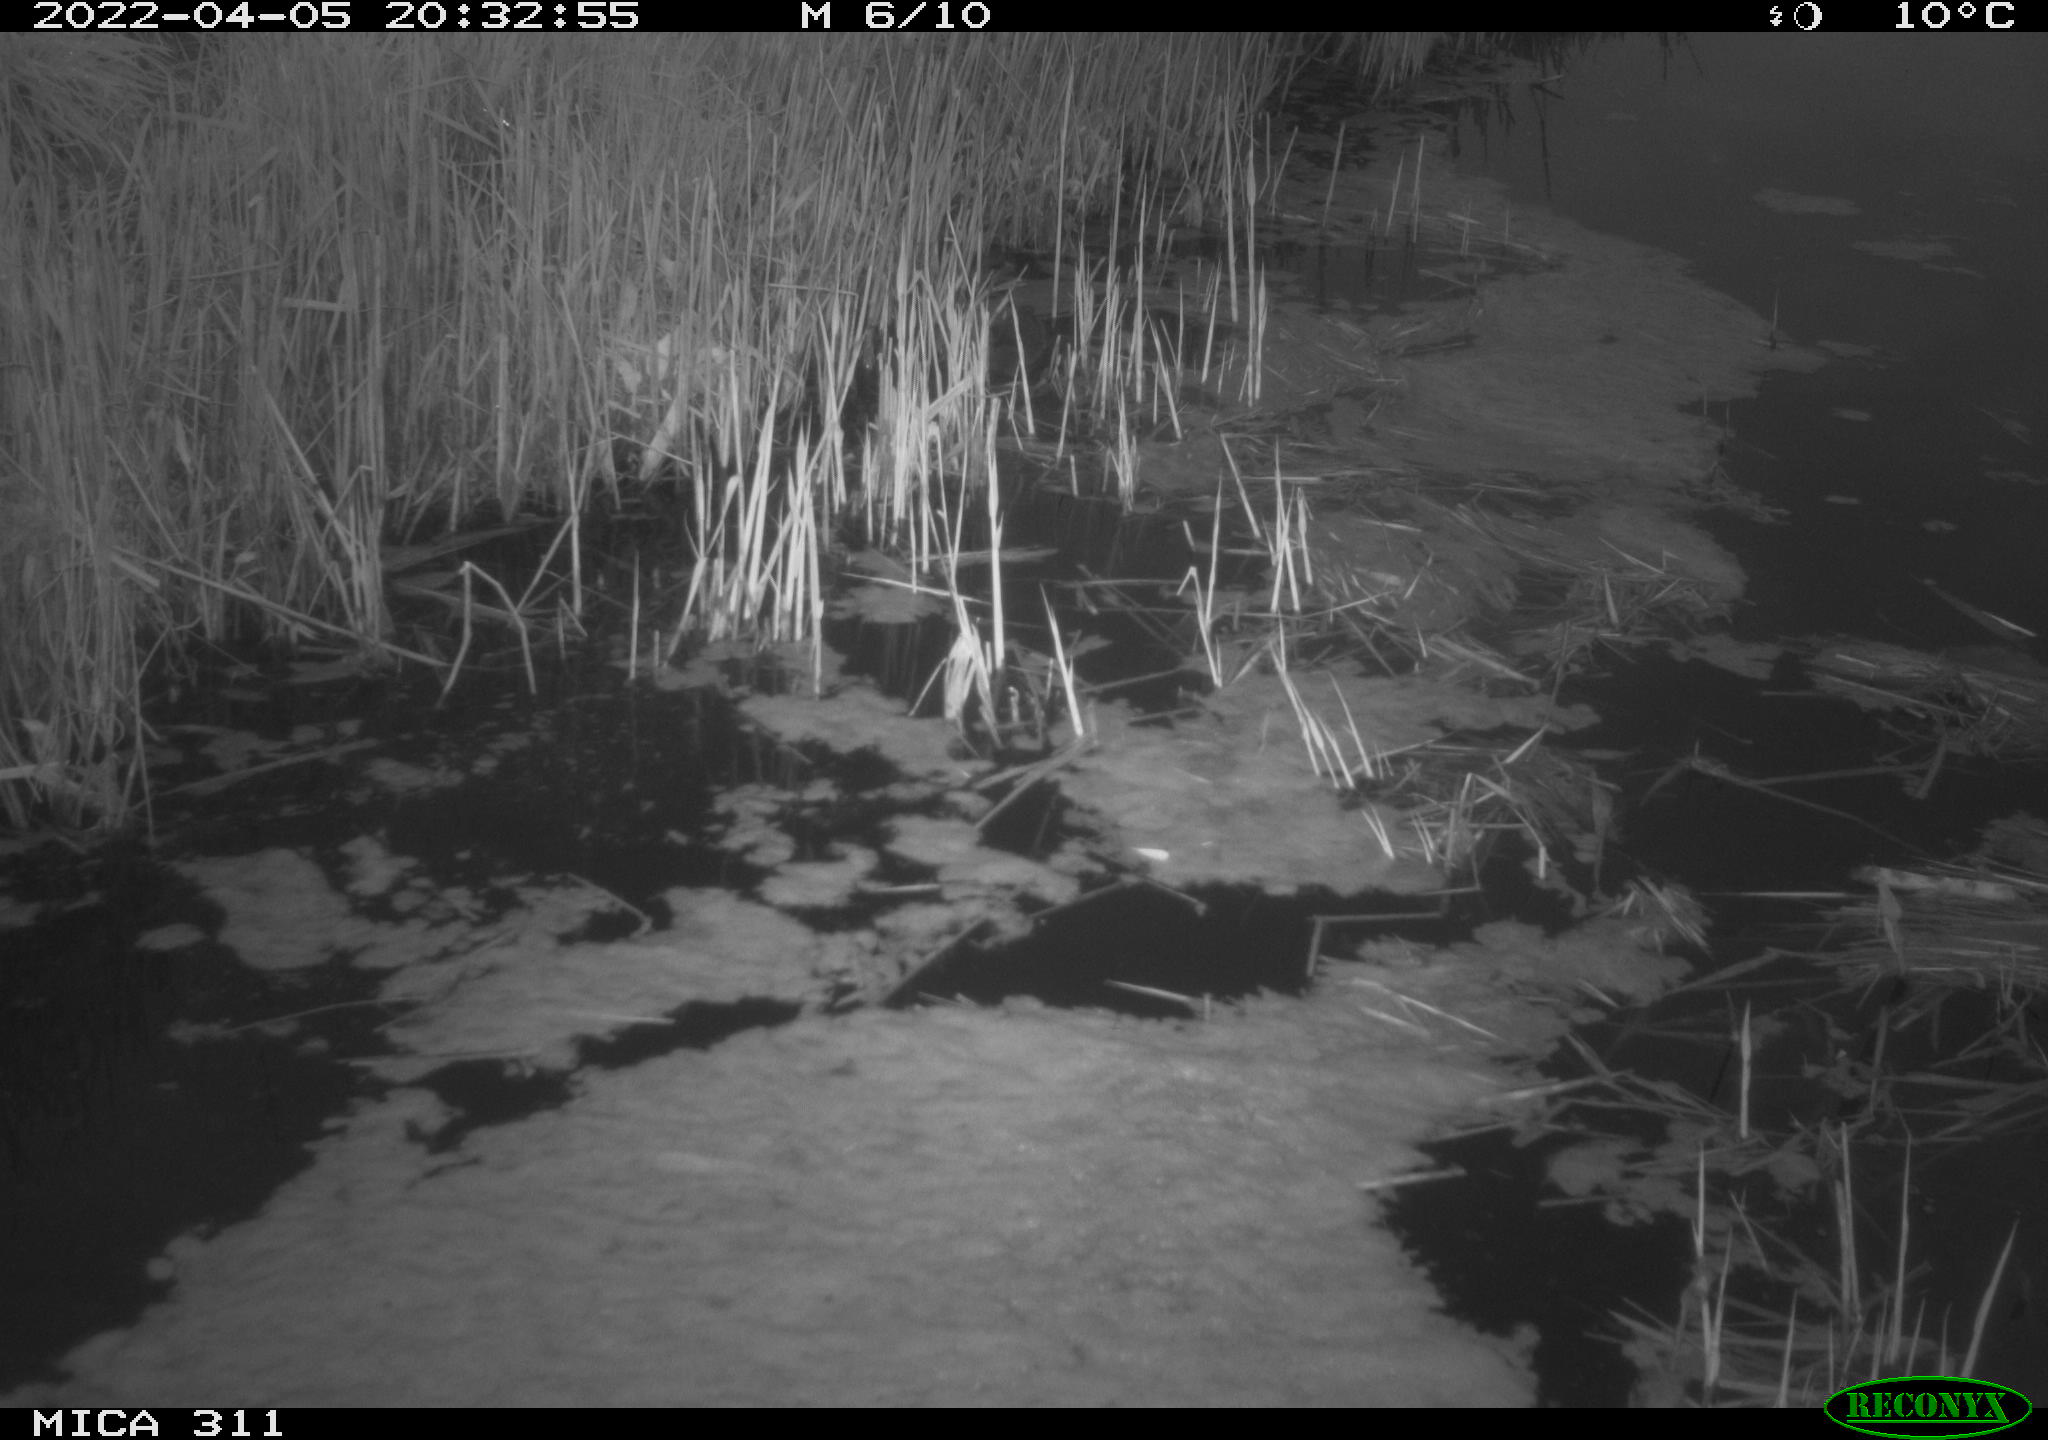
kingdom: Animalia
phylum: Chordata
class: Mammalia
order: Rodentia
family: Cricetidae
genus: Ondatra
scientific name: Ondatra zibethicus
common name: Muskrat
